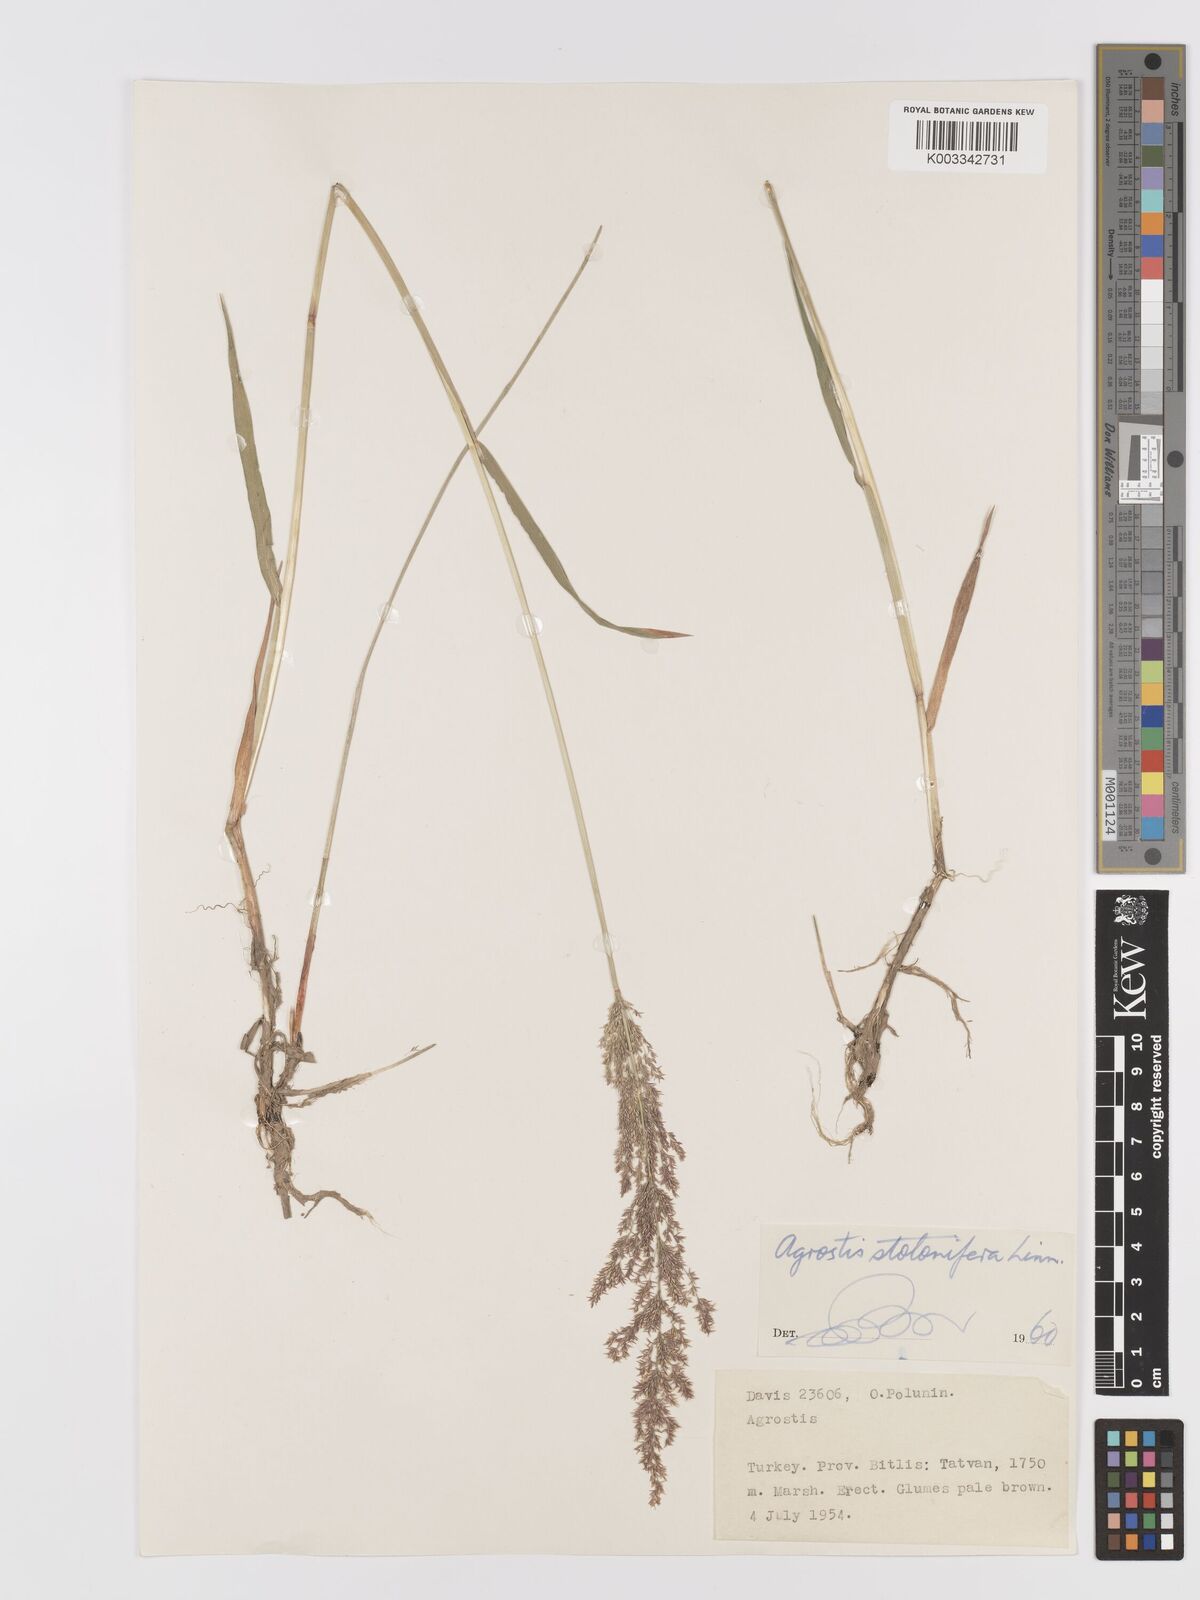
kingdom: Plantae
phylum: Tracheophyta
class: Liliopsida
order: Poales
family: Poaceae
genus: Agrostis
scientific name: Agrostis stolonifera
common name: Creeping bentgrass
